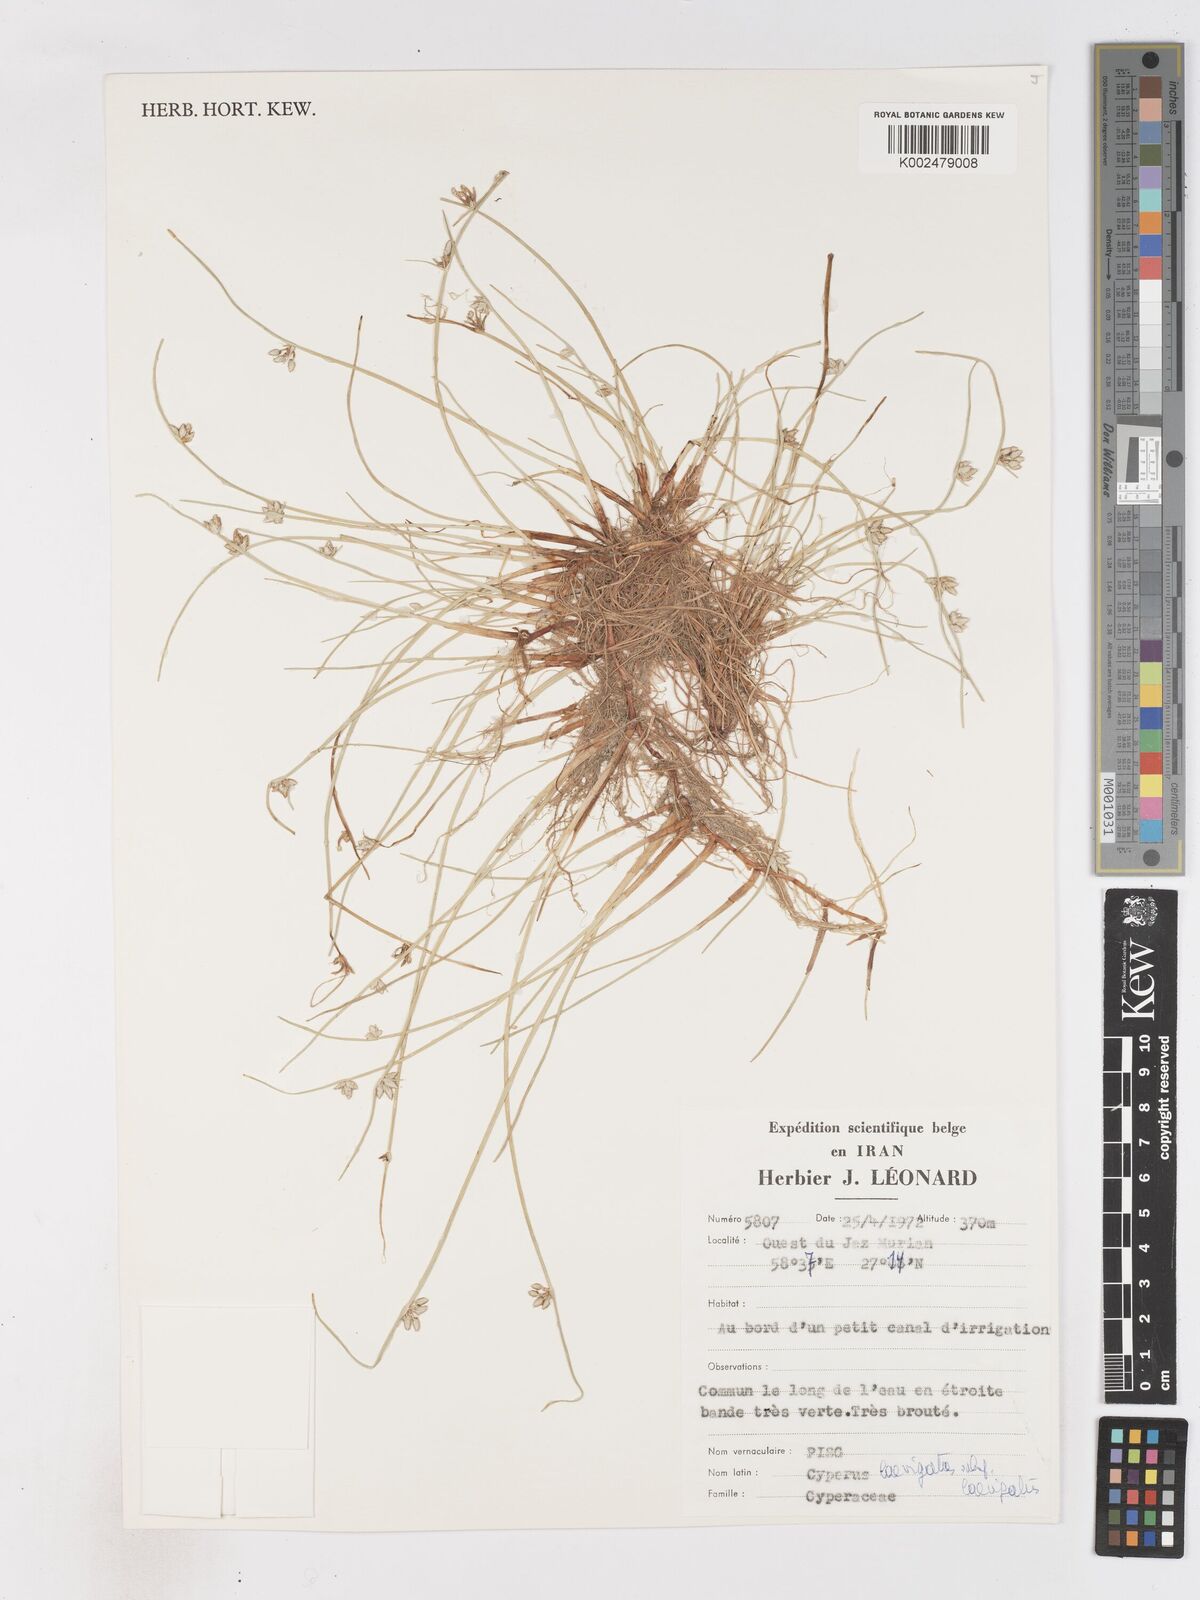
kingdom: Plantae
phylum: Tracheophyta
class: Liliopsida
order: Poales
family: Cyperaceae
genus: Cyperus
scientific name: Cyperus laevigatus
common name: Smooth flat sedge
